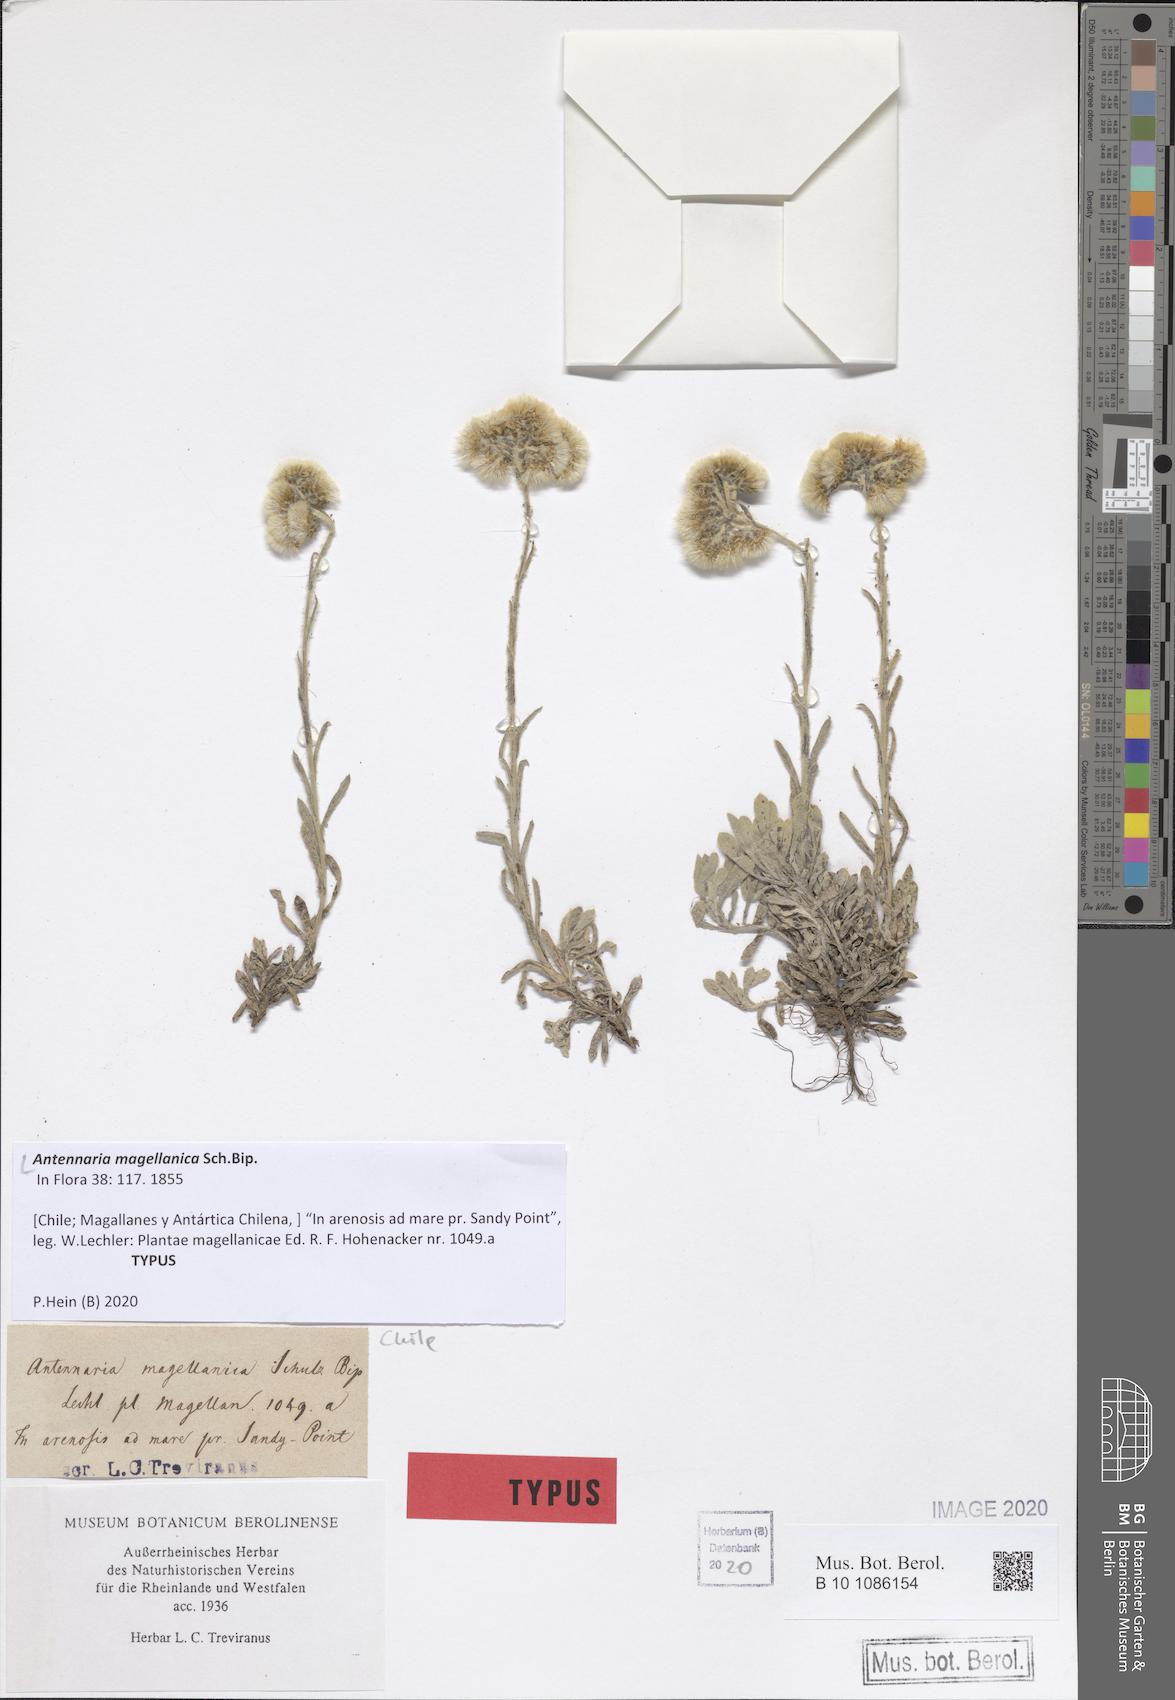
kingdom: Plantae
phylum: Tracheophyta
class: Magnoliopsida
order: Asterales
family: Asteraceae
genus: Antennaria
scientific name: Antennaria chilensis
